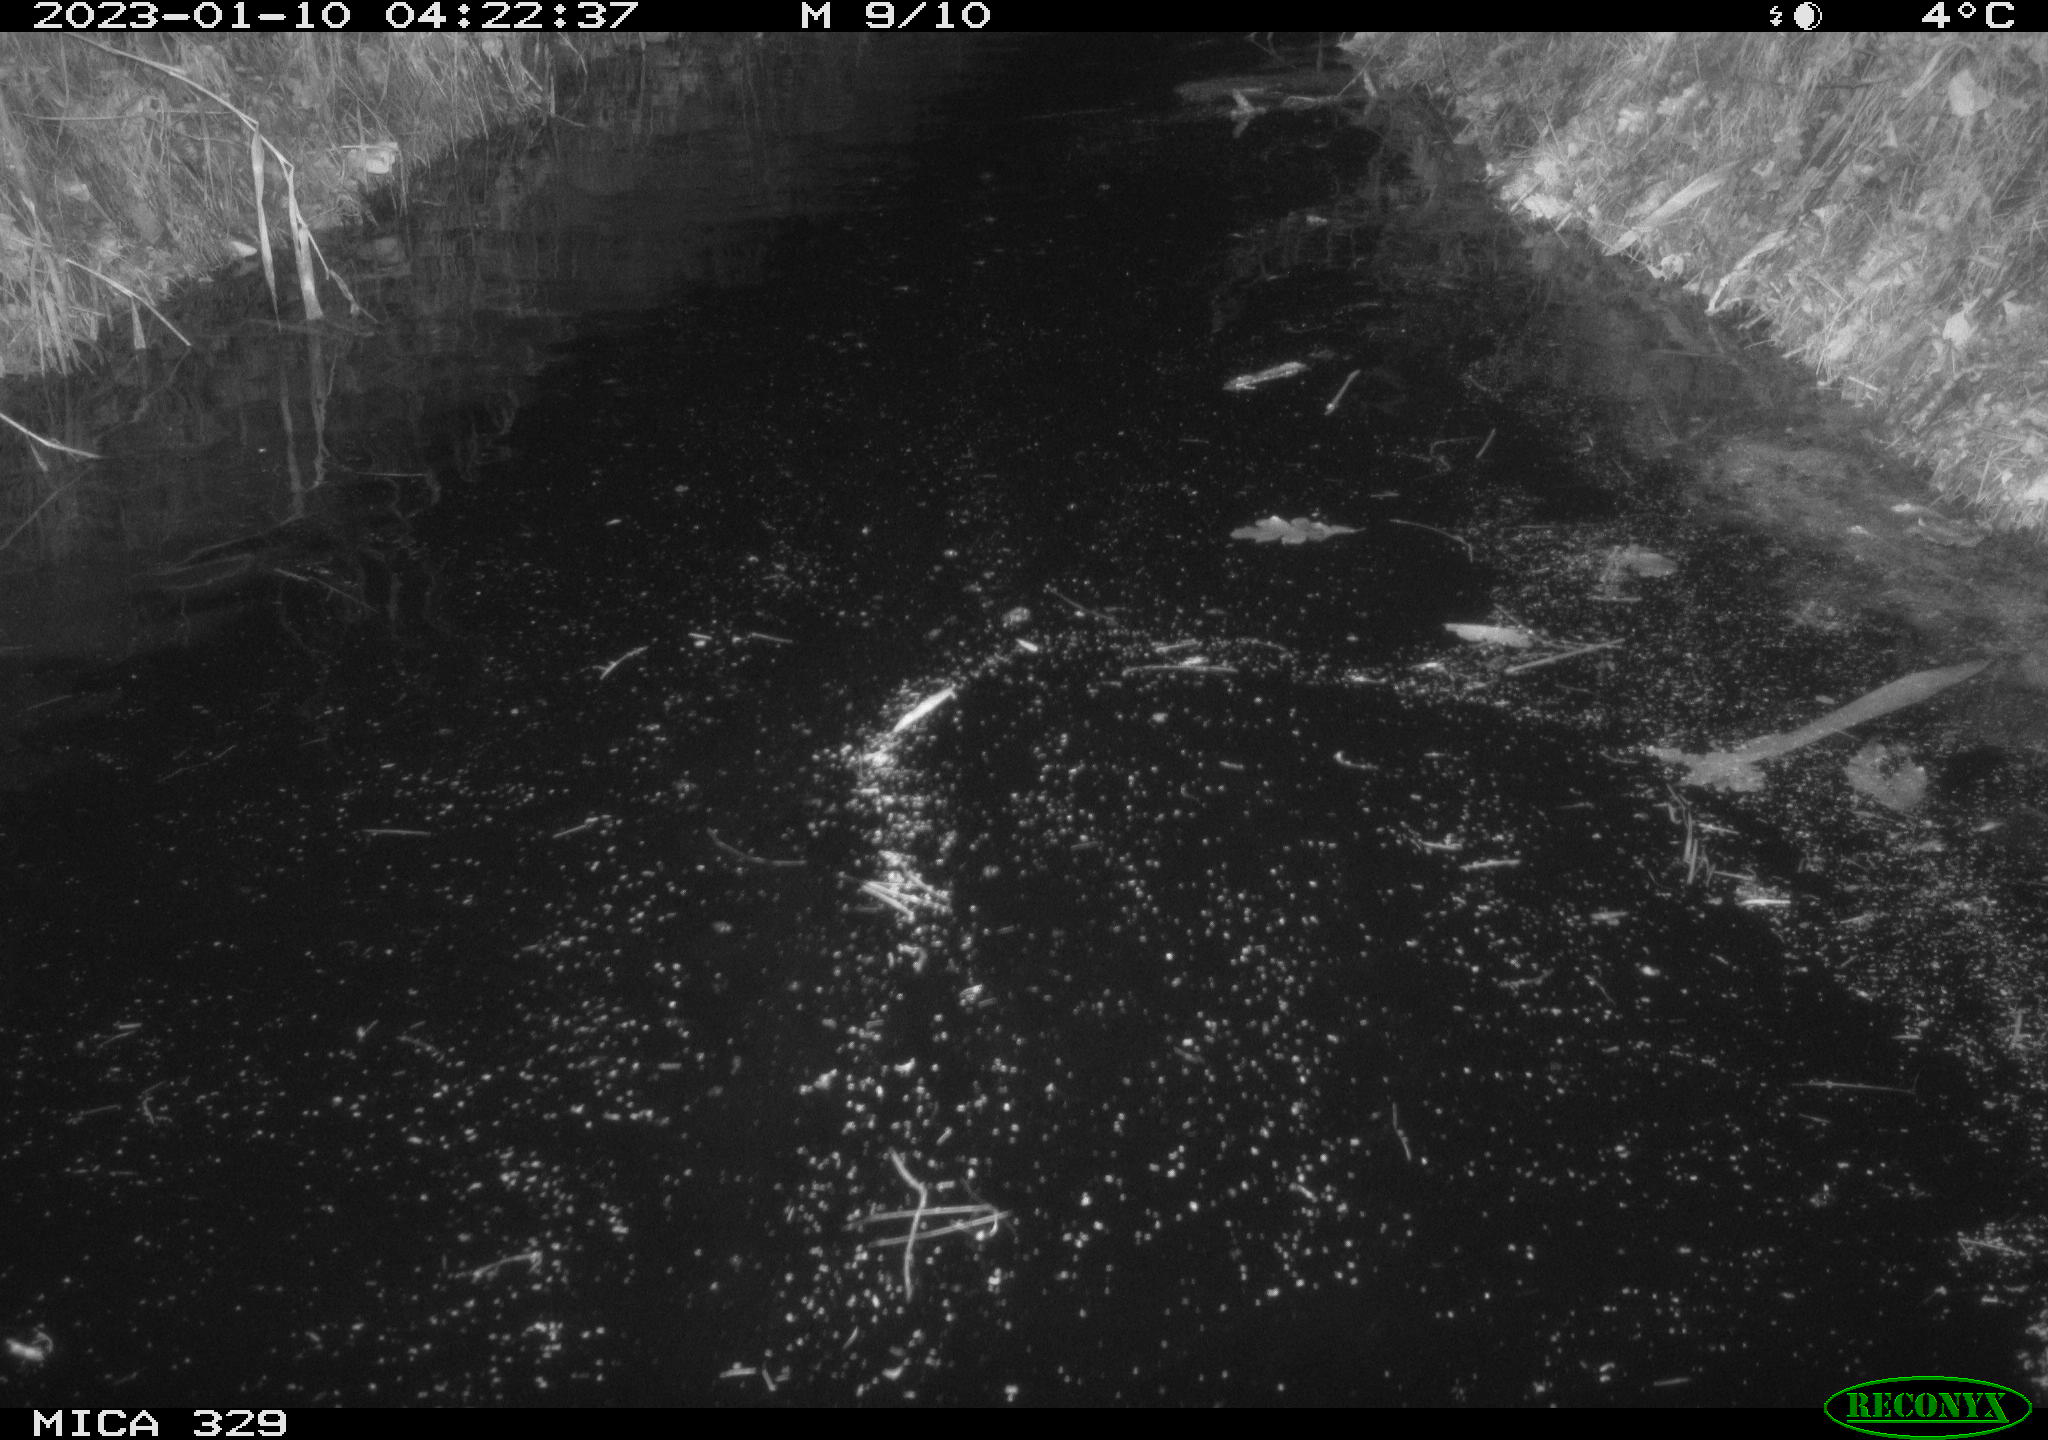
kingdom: Animalia
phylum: Chordata
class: Mammalia
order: Rodentia
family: Cricetidae
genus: Ondatra
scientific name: Ondatra zibethicus
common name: Muskrat
